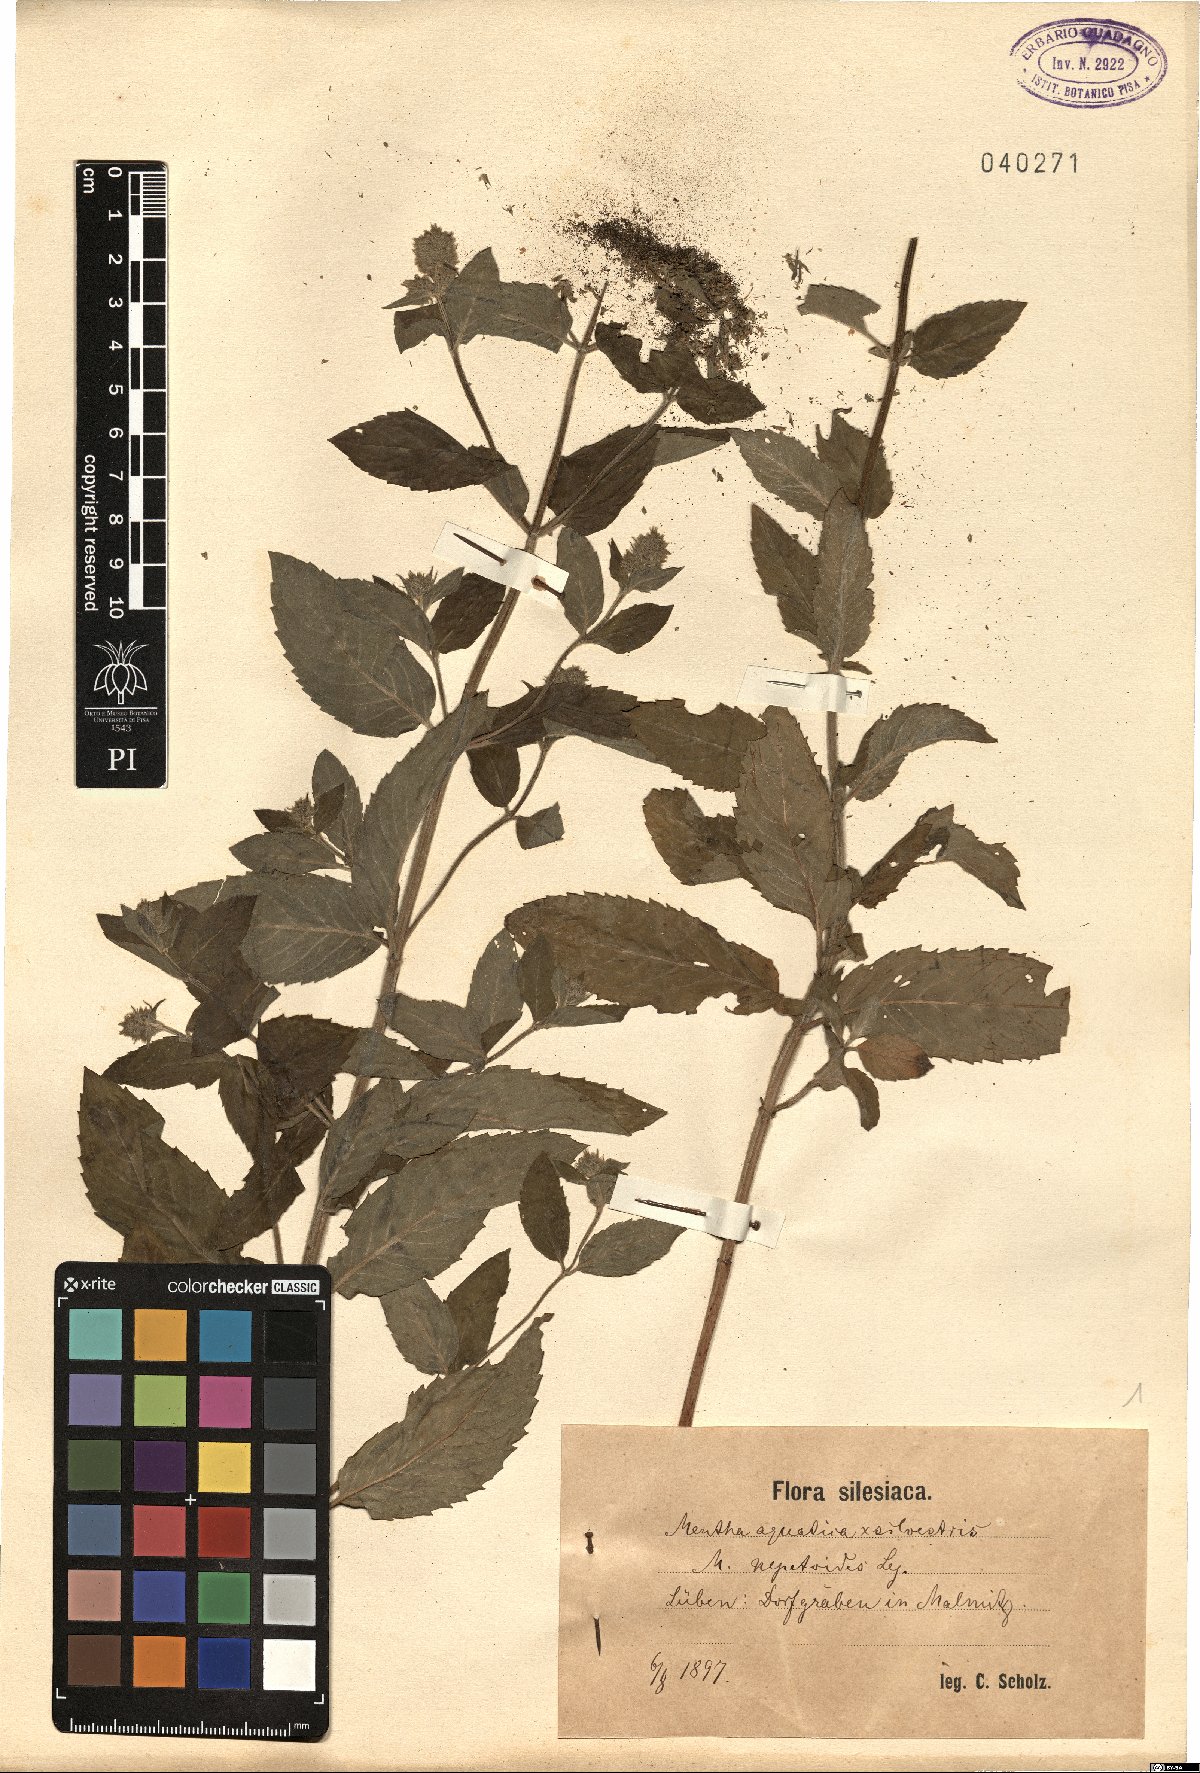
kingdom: Plantae
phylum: Tracheophyta
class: Magnoliopsida
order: Lamiales
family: Lamiaceae
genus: Mentha
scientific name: Mentha dumetorum
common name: Bush-loving mint
